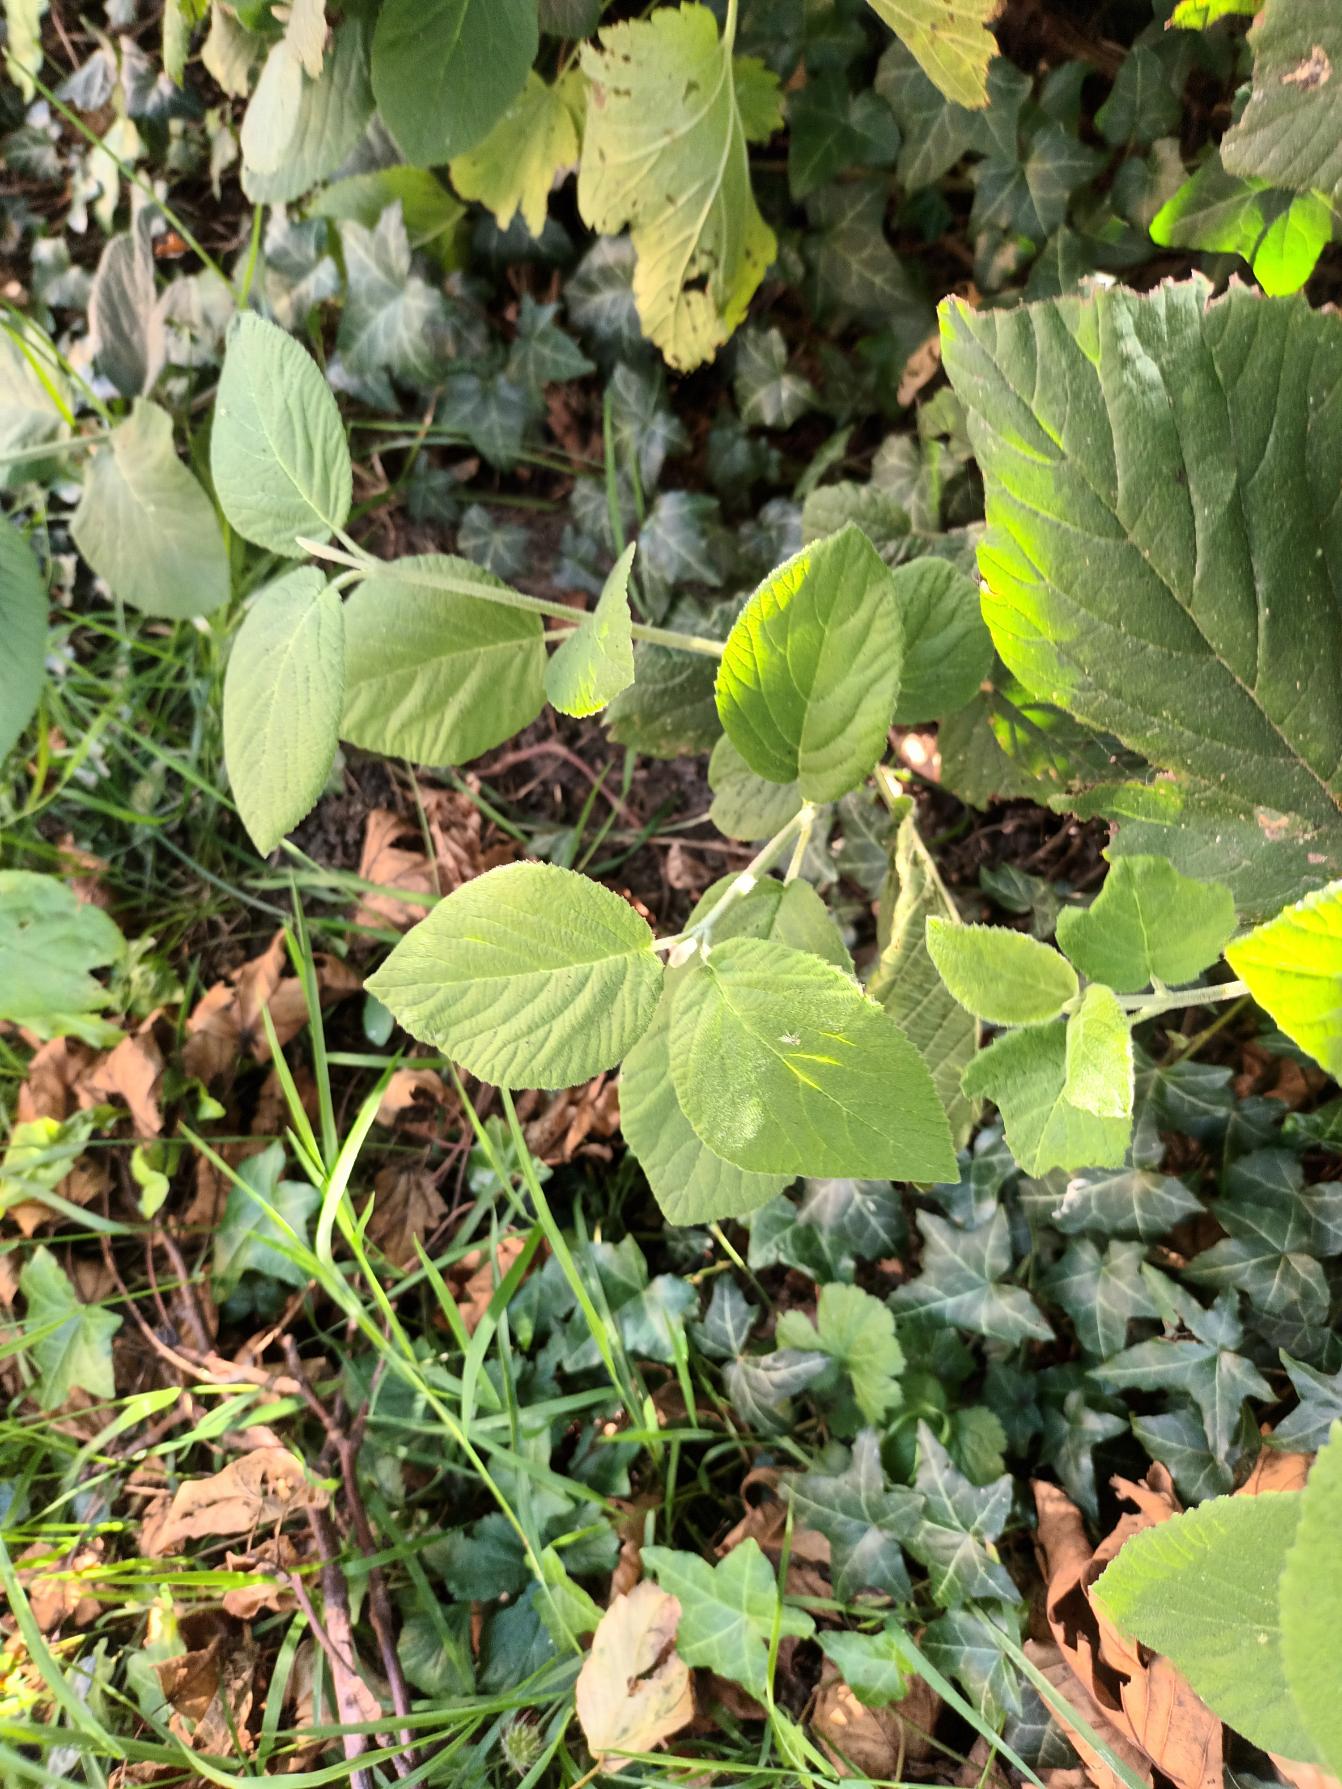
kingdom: Plantae
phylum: Tracheophyta
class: Magnoliopsida
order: Dipsacales
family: Viburnaceae
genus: Viburnum
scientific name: Viburnum lantana
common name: Pibe-kvalkved
